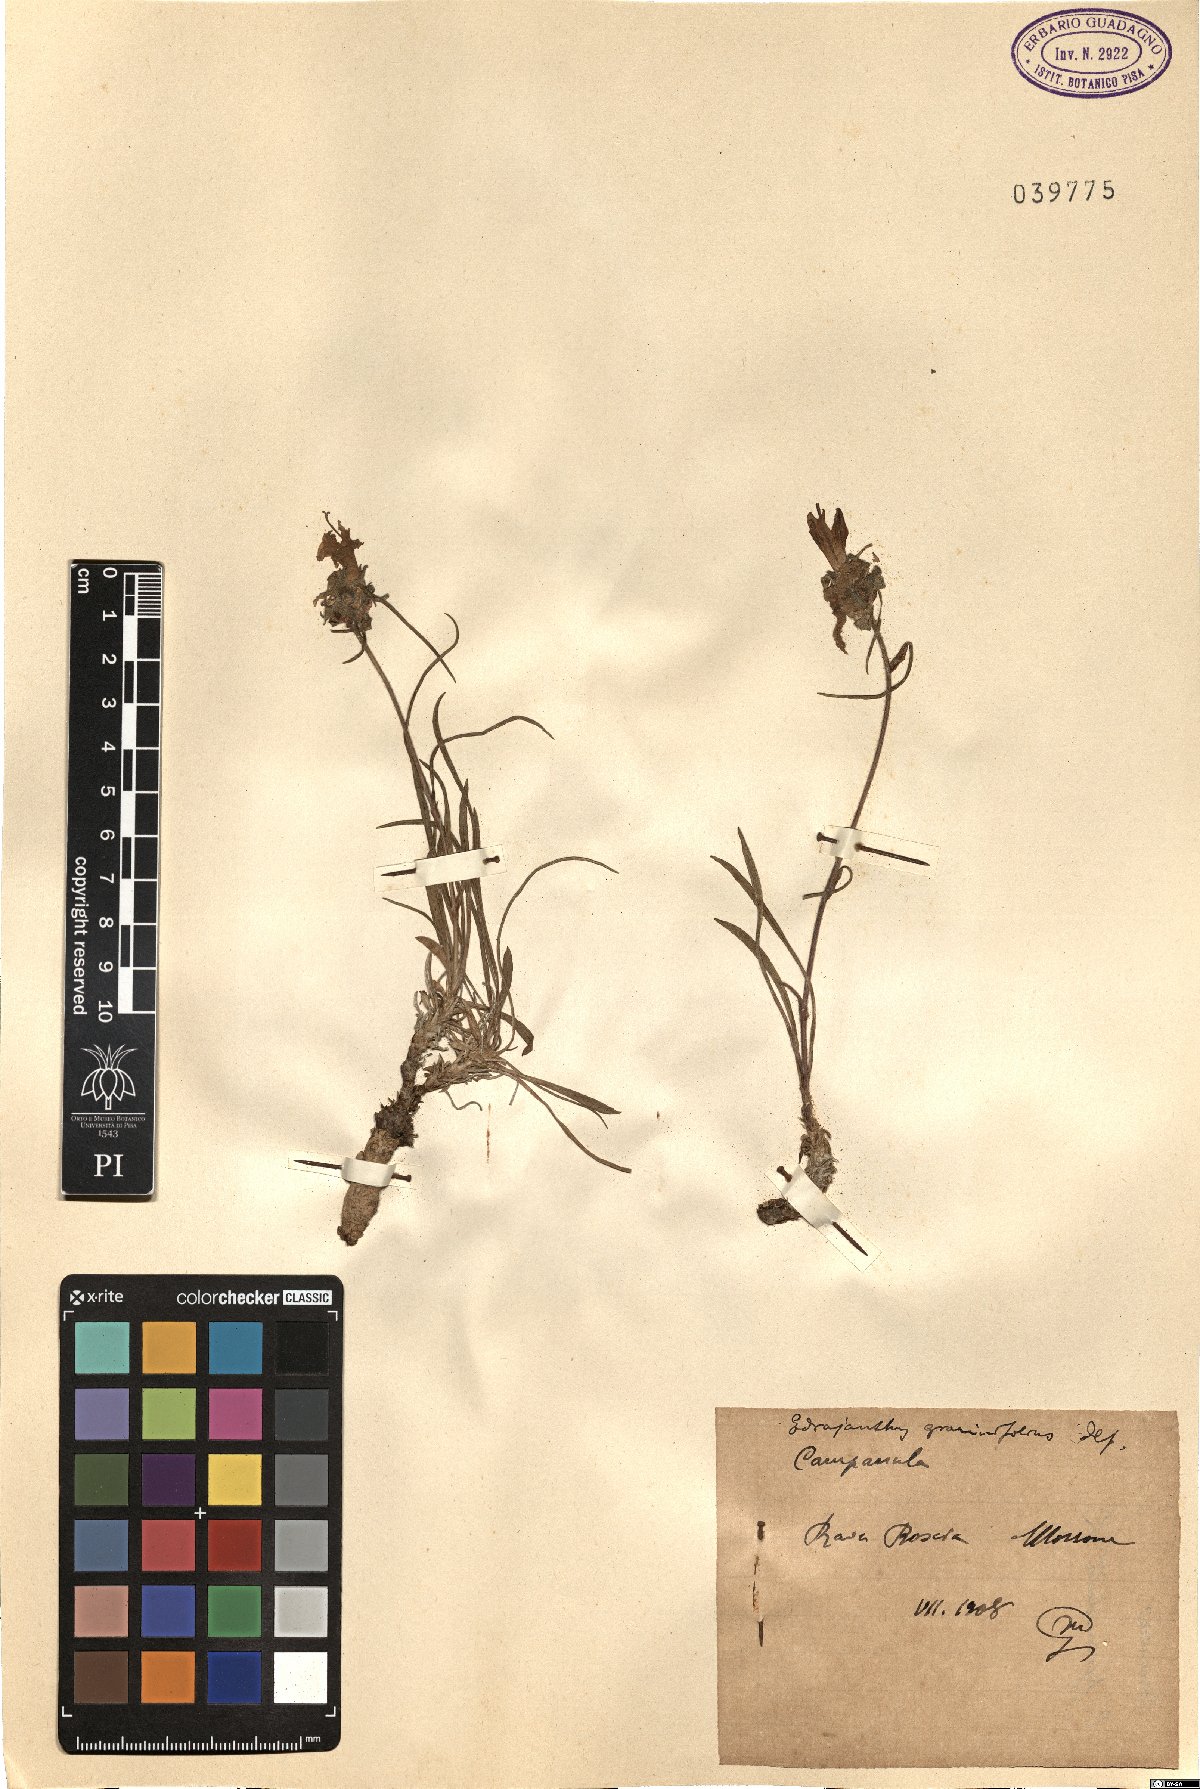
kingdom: Plantae
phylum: Tracheophyta
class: Magnoliopsida
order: Asterales
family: Campanulaceae
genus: Edraianthus
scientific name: Edraianthus graminifolius
